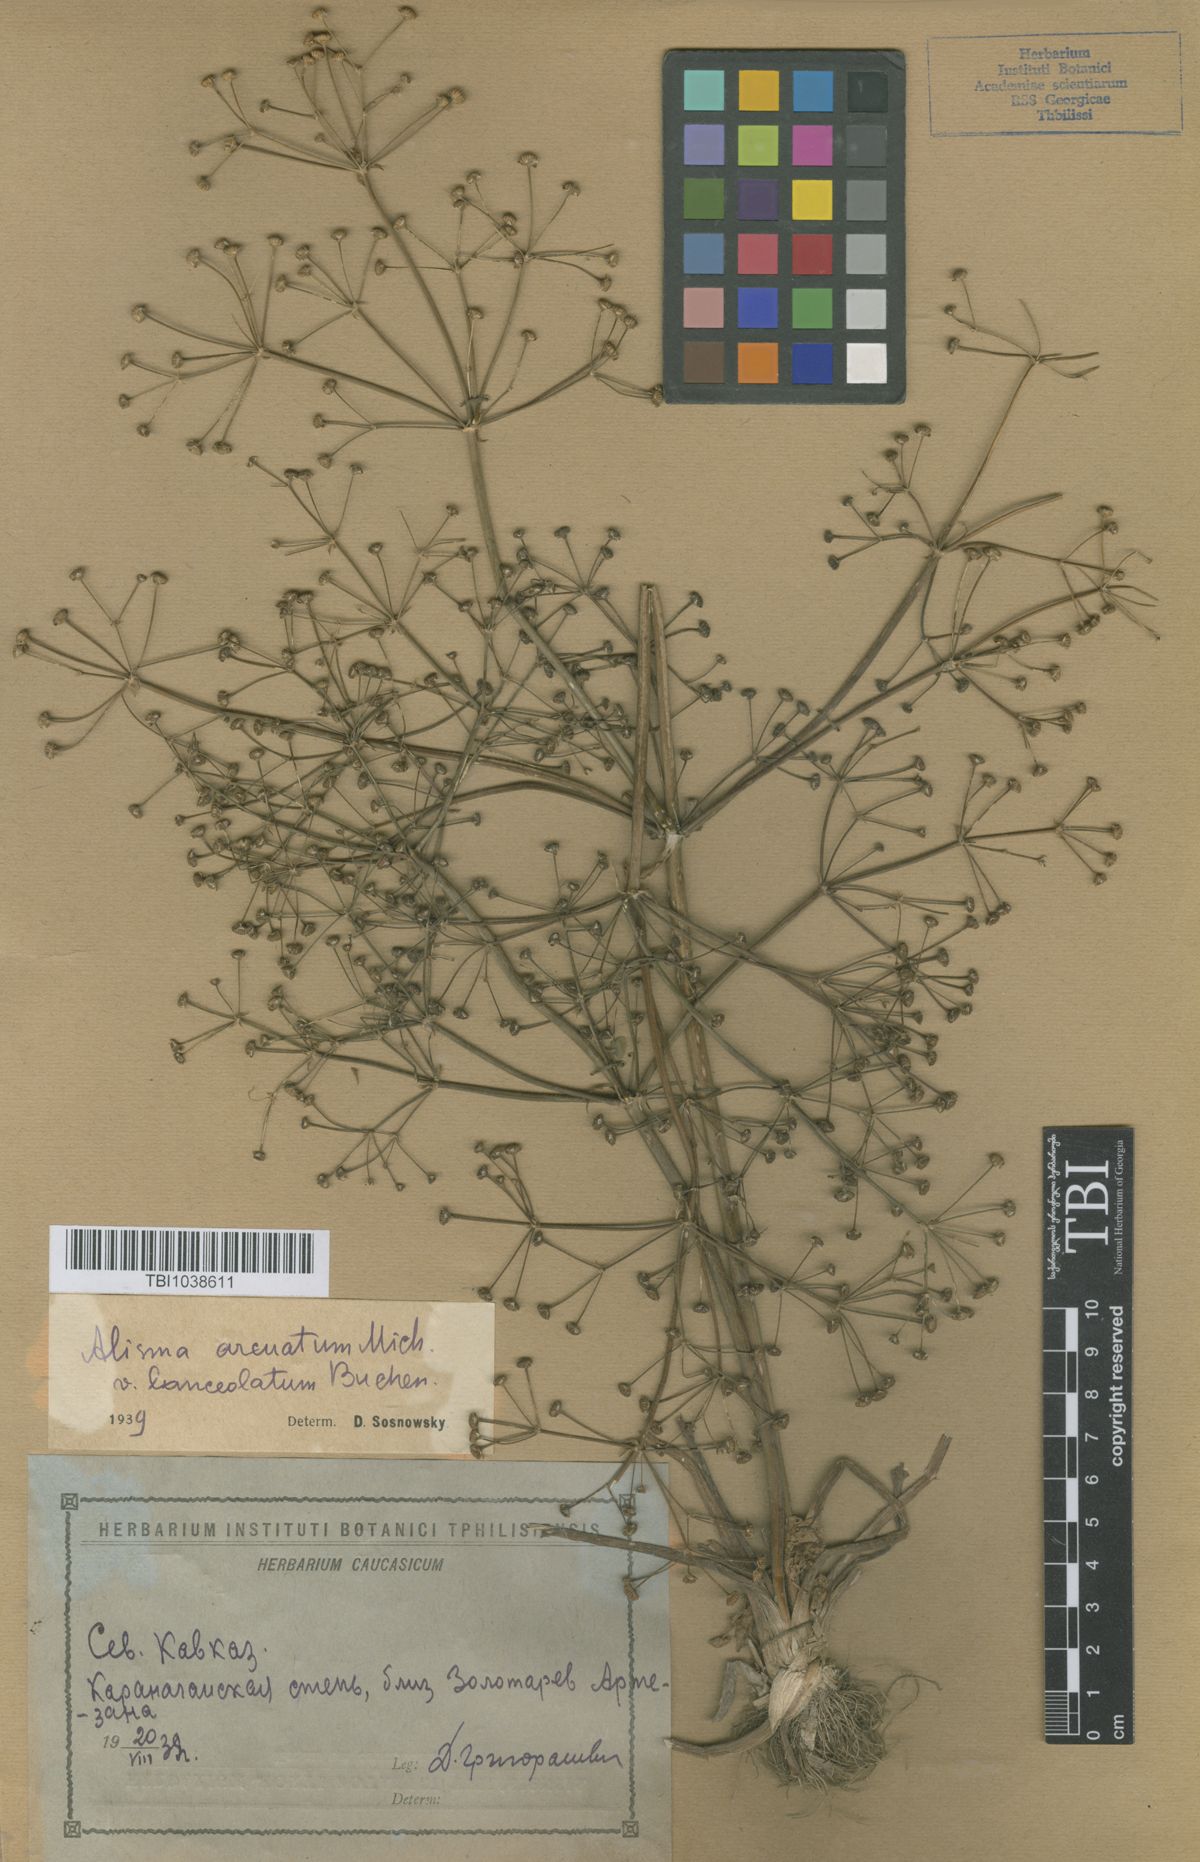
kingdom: Plantae
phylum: Tracheophyta
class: Liliopsida
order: Alismatales
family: Alismataceae
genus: Alisma
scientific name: Alisma gramineum
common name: Ribbon-leaved water-plantain
